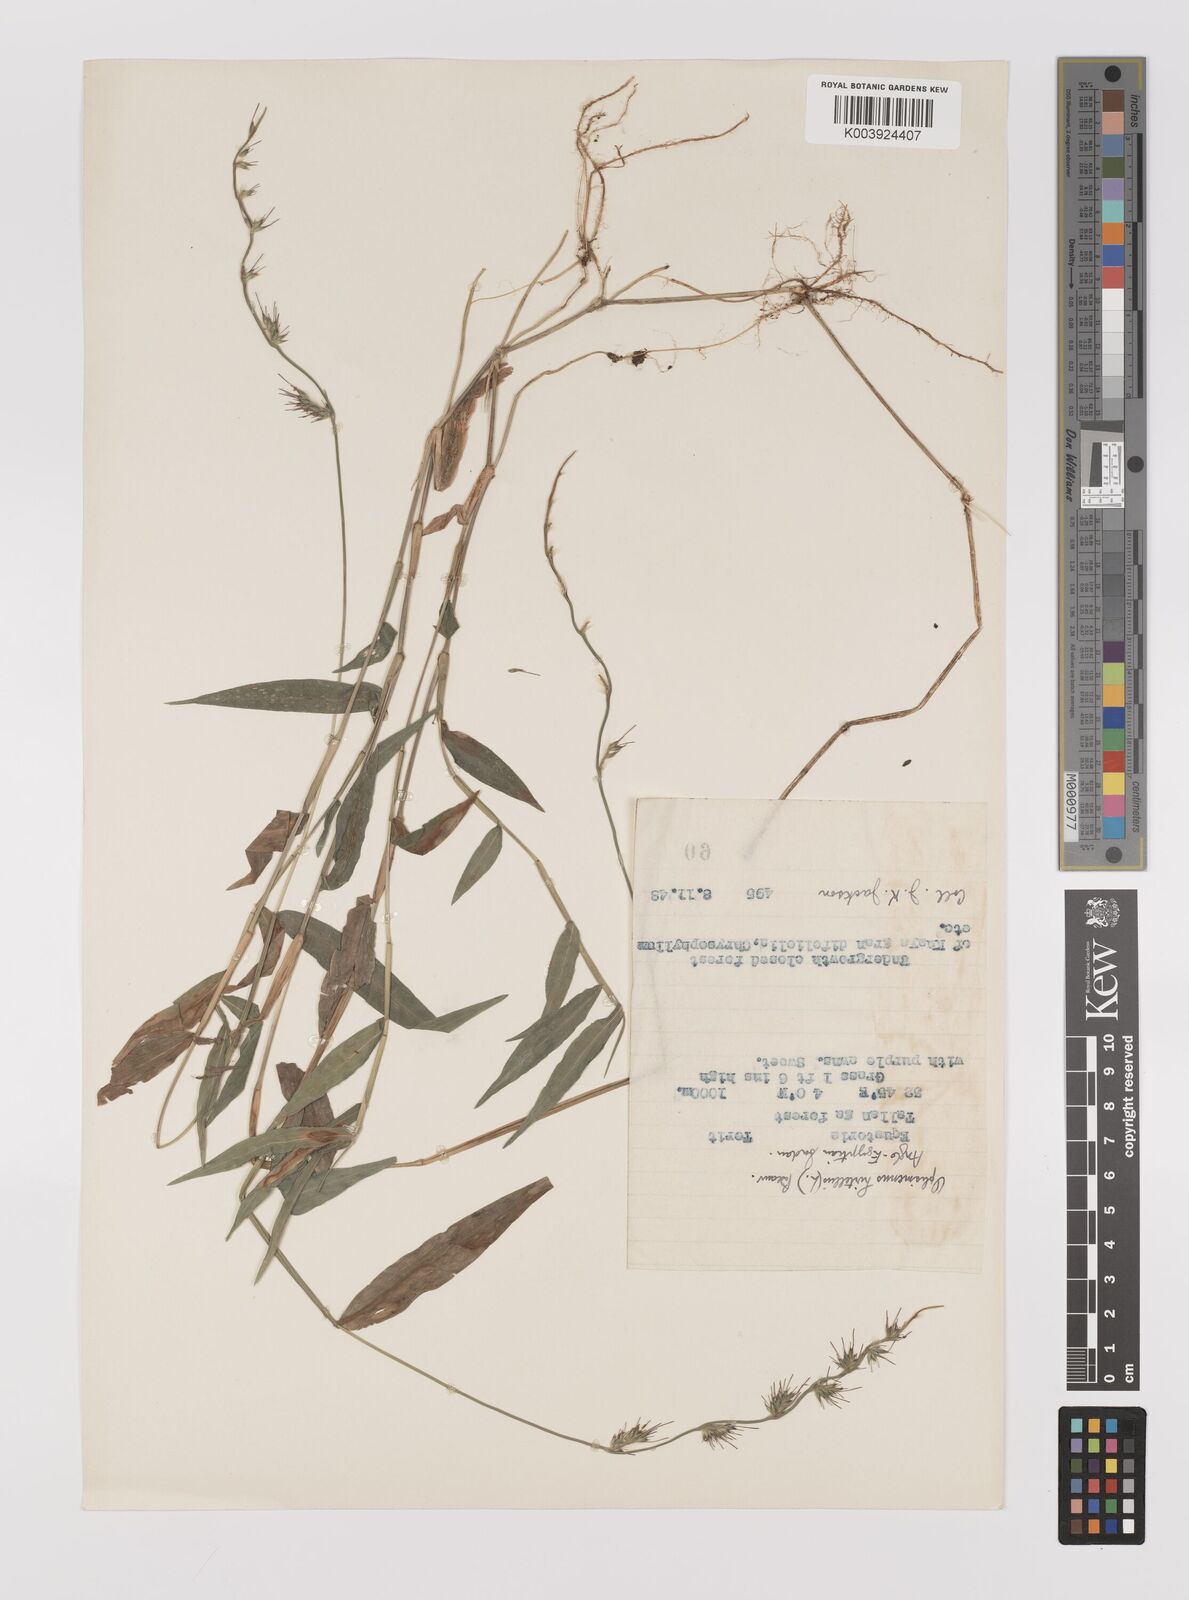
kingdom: Plantae
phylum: Tracheophyta
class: Liliopsida
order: Poales
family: Poaceae
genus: Oplismenus
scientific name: Oplismenus hirtellus
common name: Basketgrass
